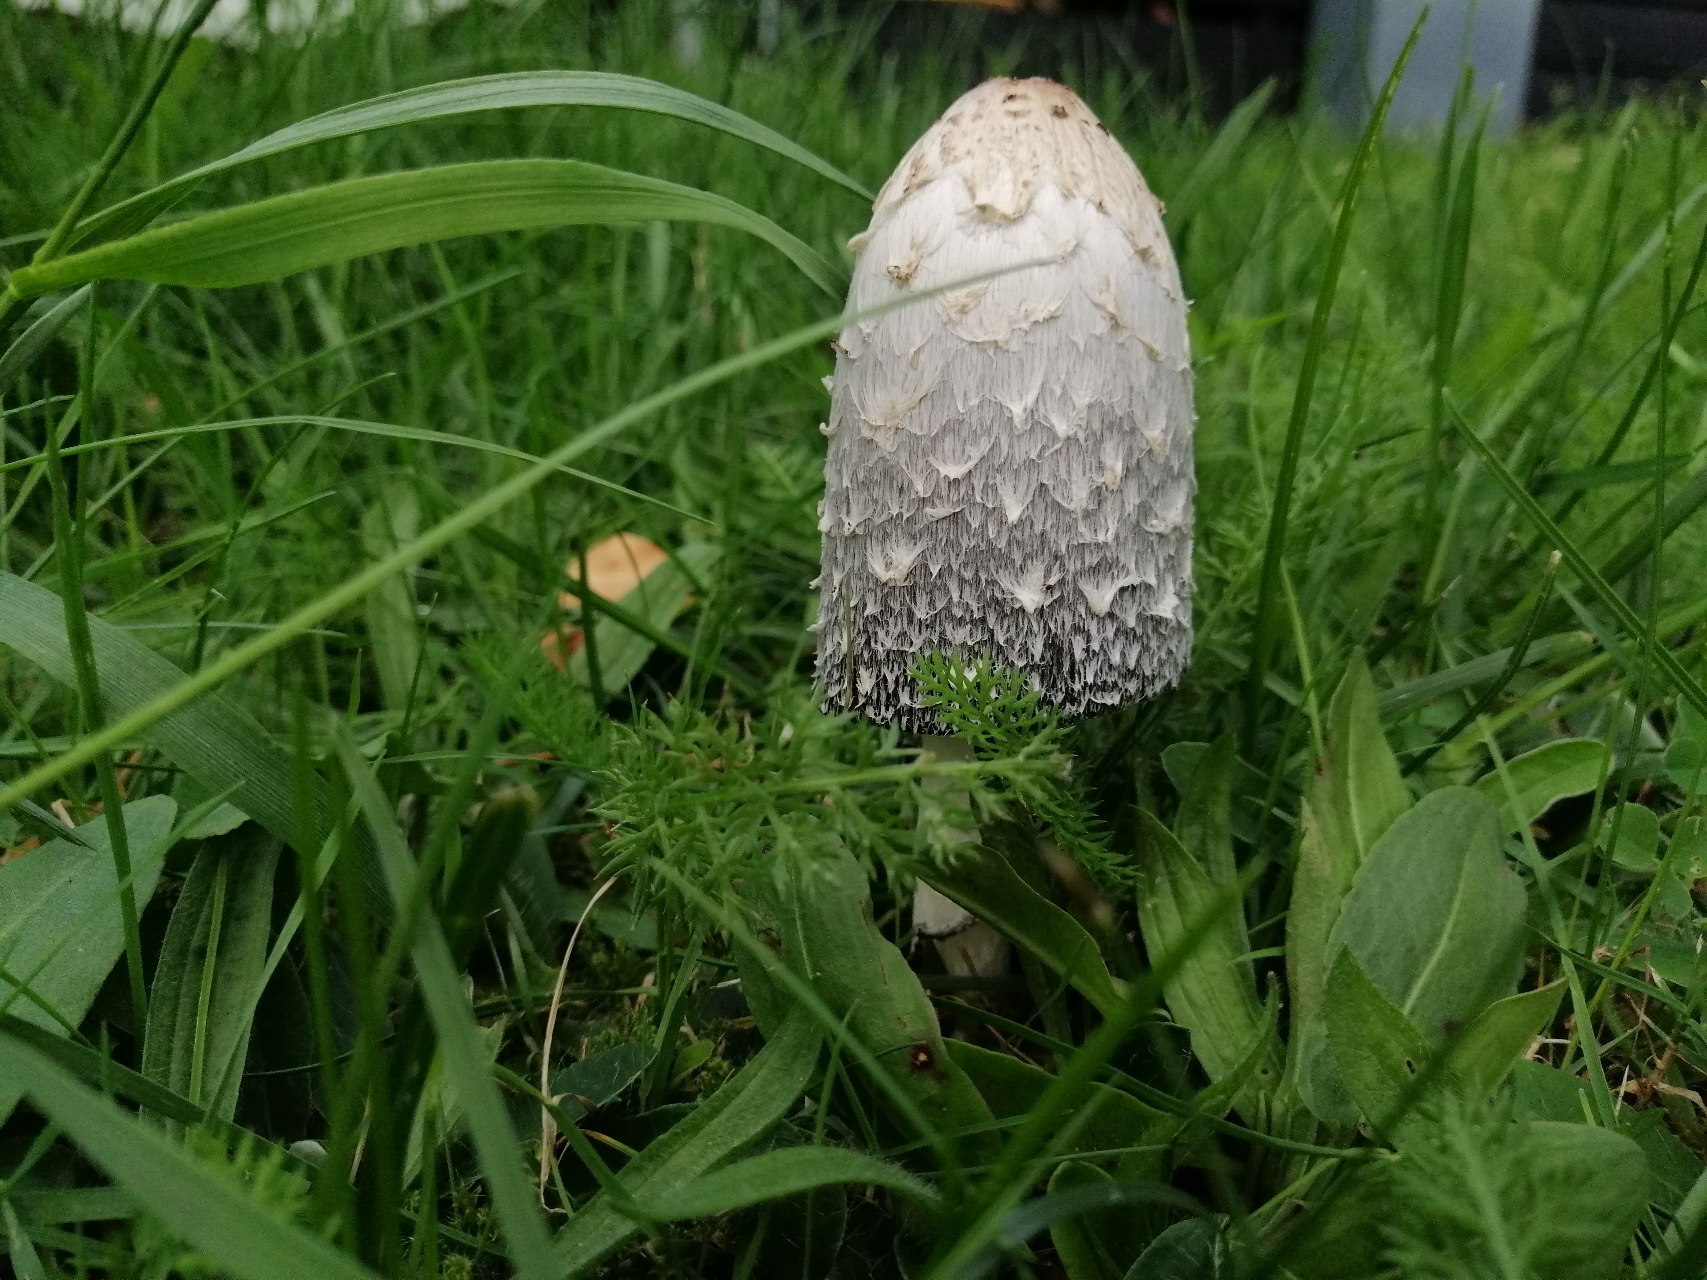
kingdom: Fungi
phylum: Basidiomycota
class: Agaricomycetes
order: Agaricales
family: Agaricaceae
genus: Coprinus
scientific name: Coprinus comatus
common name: Stor parykhat
